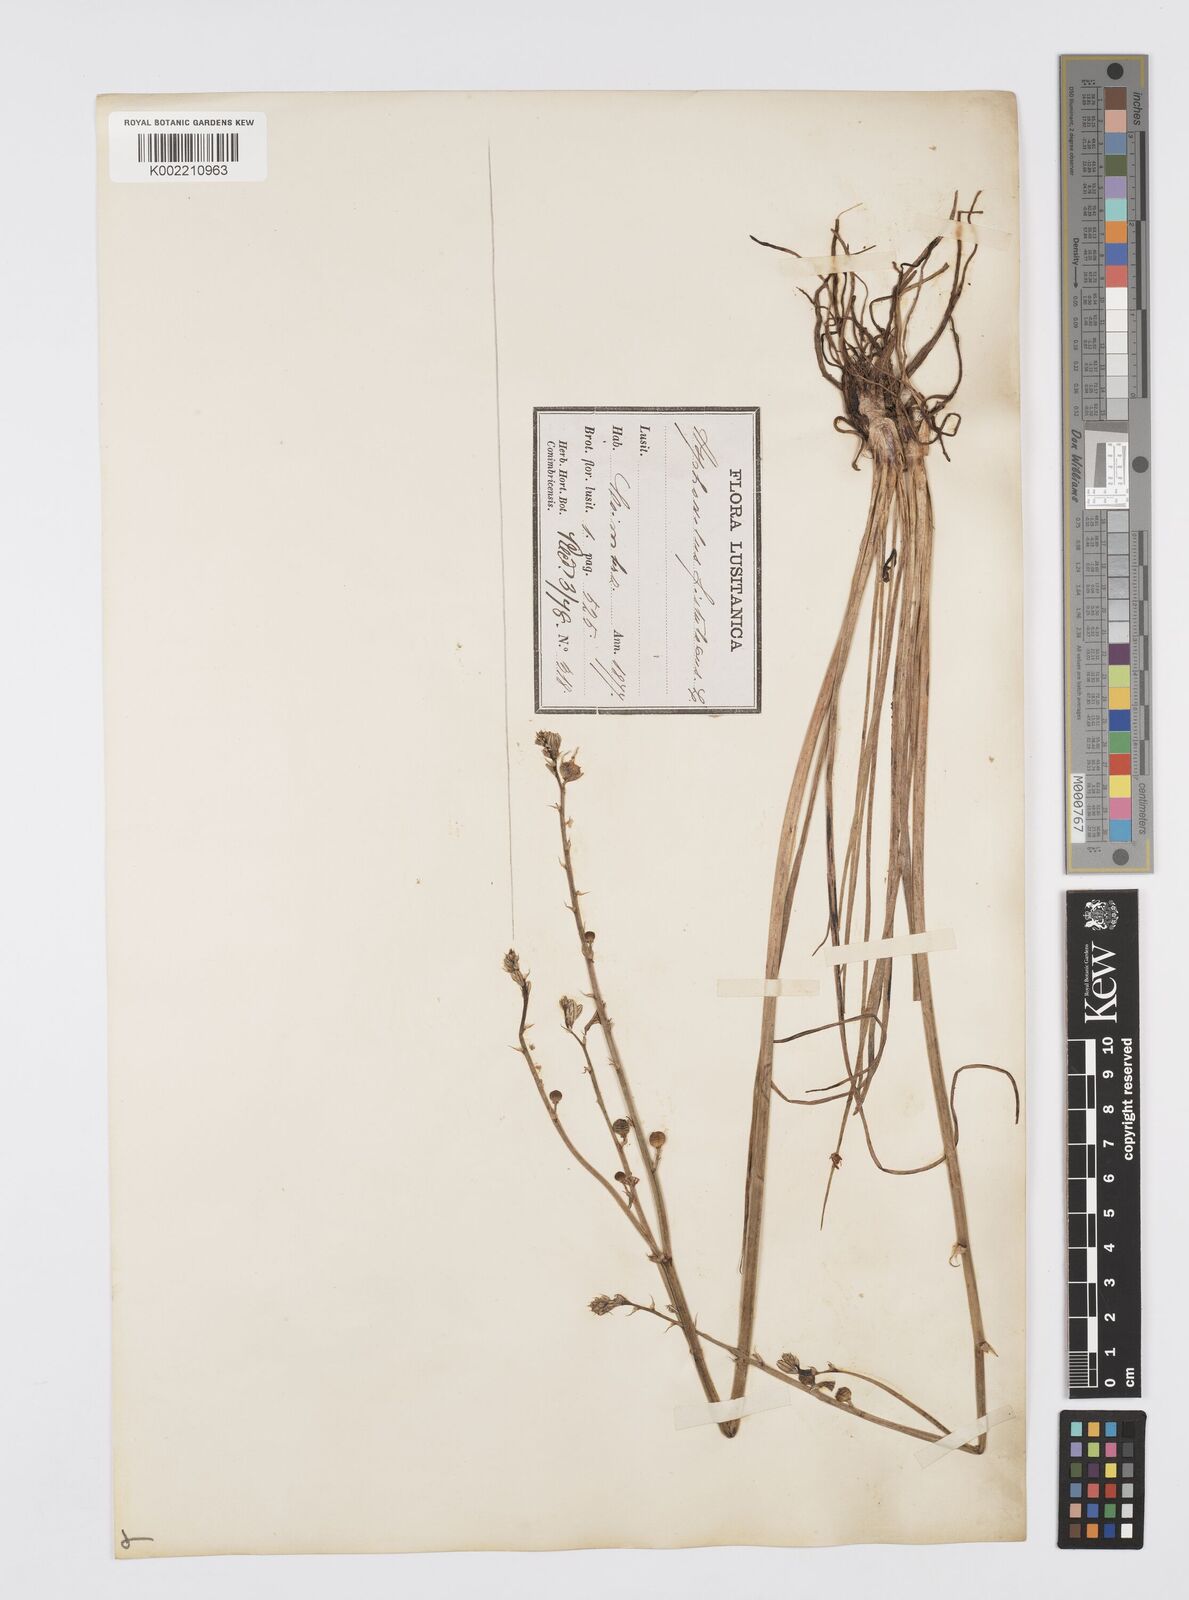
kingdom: Plantae
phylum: Tracheophyta
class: Liliopsida
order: Asparagales
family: Asphodelaceae
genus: Asphodelus
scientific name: Asphodelus fistulosus
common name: Onionweed
